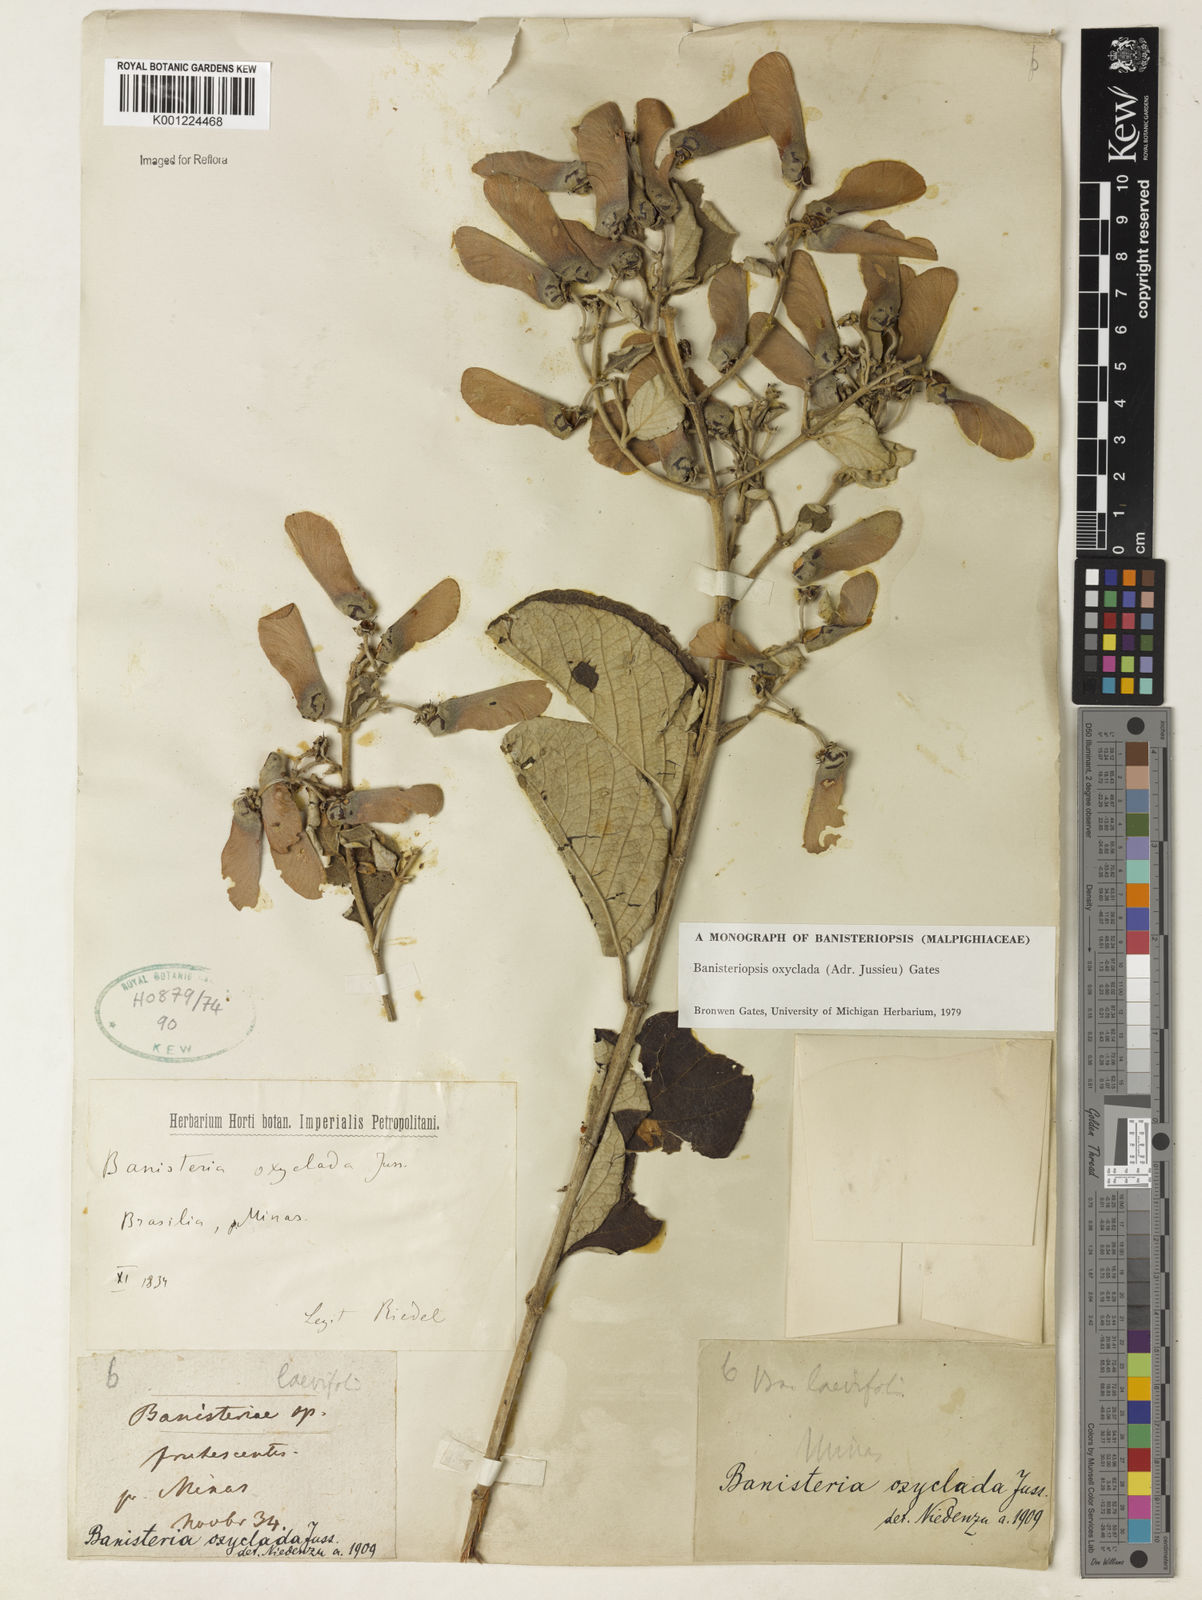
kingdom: Plantae
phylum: Tracheophyta
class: Magnoliopsida
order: Malpighiales
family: Malpighiaceae
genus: Banisteriopsis
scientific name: Banisteriopsis oxyclada
